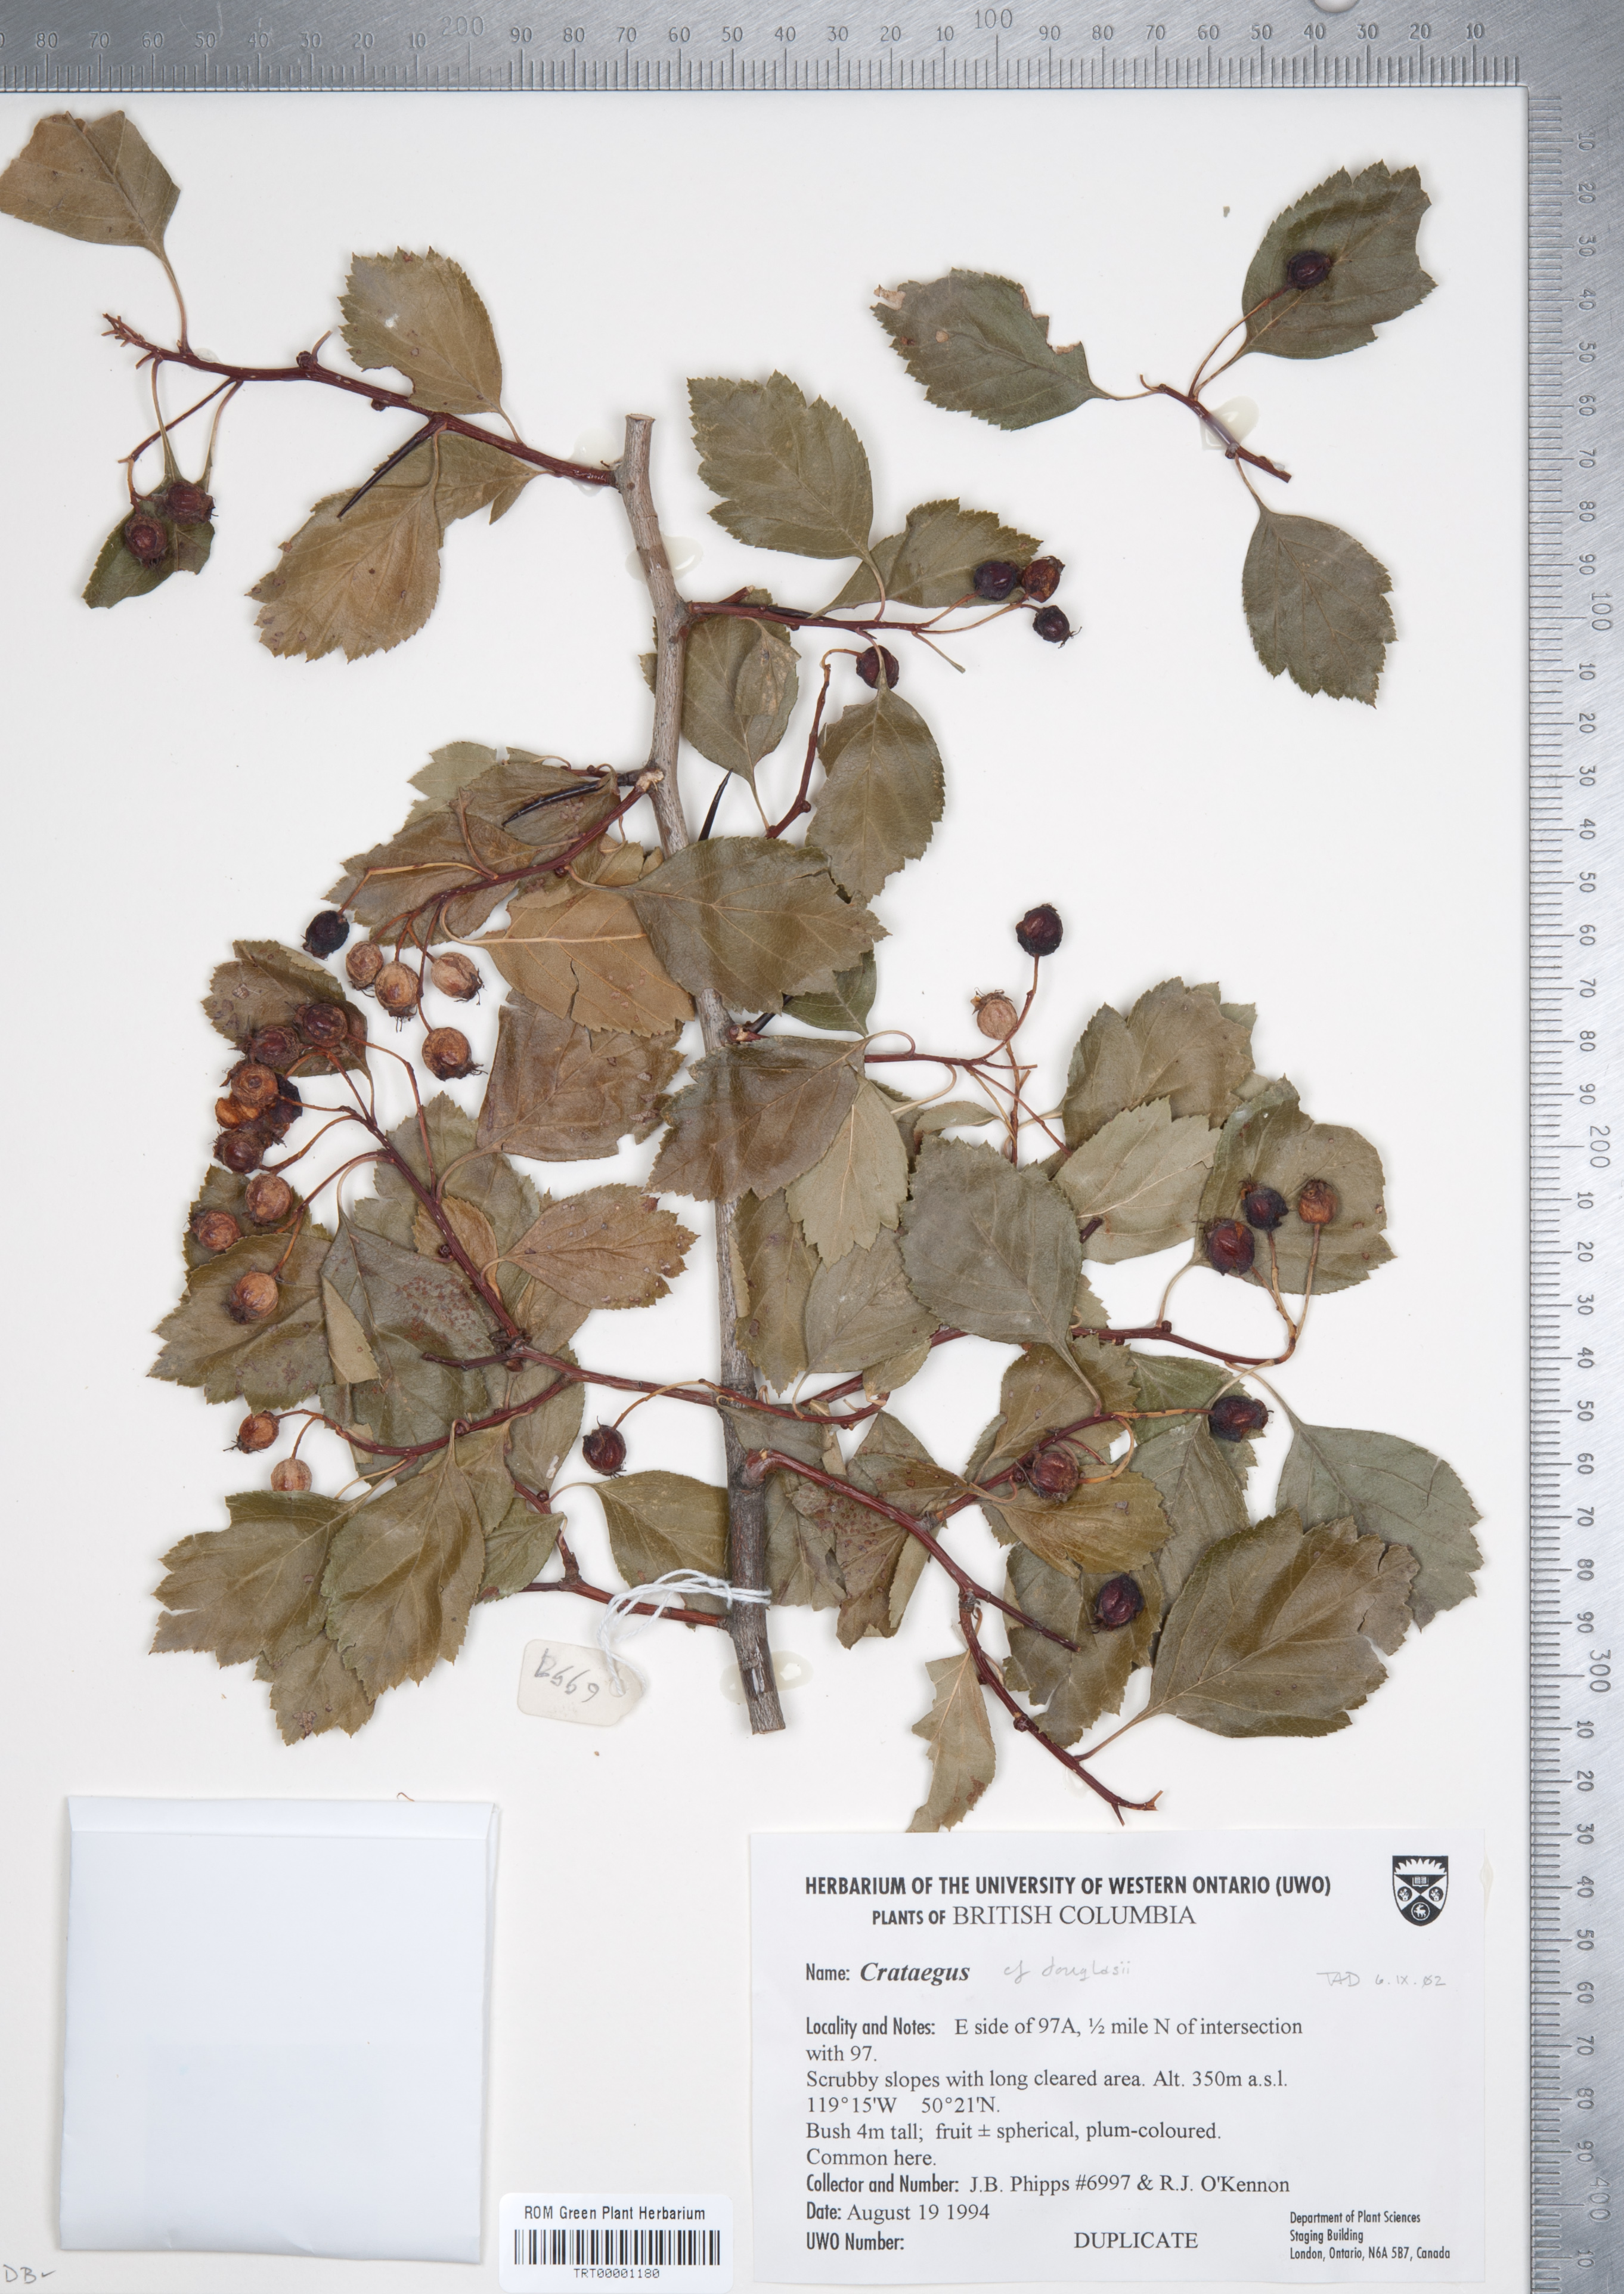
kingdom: Plantae
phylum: Tracheophyta
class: Magnoliopsida
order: Rosales
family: Rosaceae
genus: Crataegus
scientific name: Crataegus douglasii
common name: Black hawthorn
